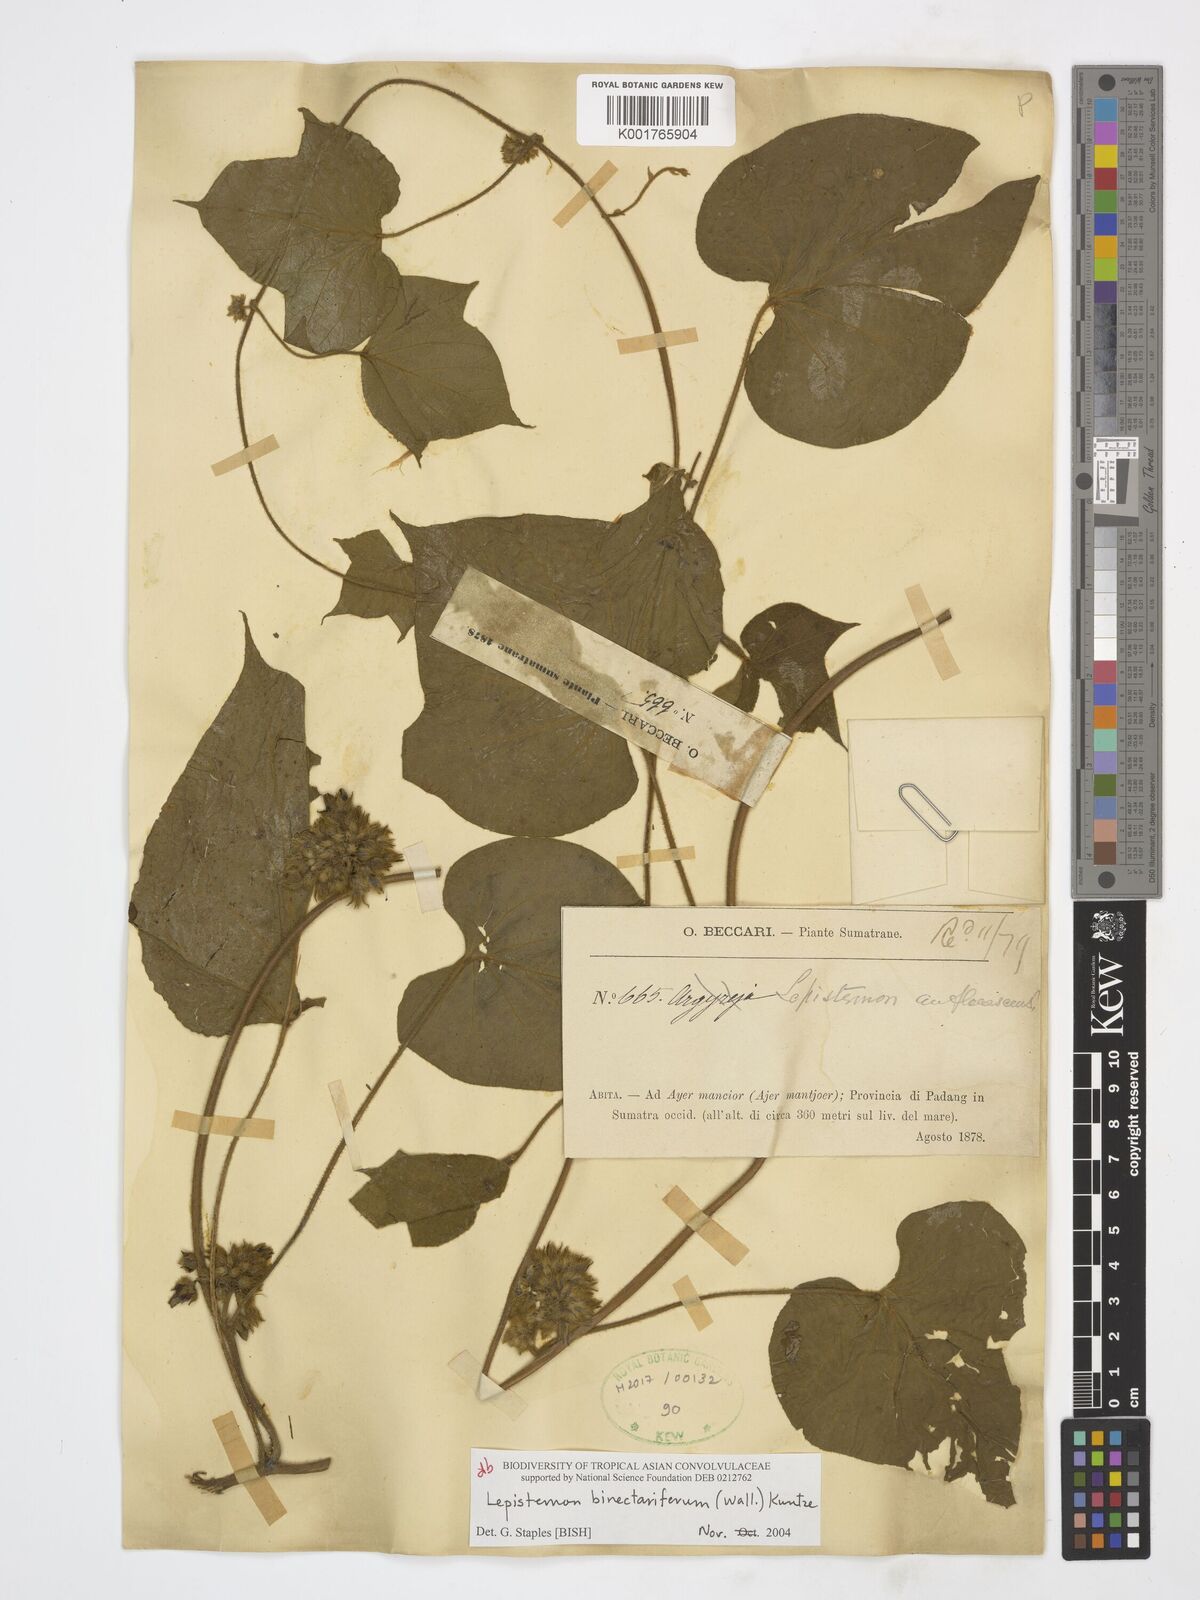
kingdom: Plantae
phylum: Tracheophyta
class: Magnoliopsida
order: Solanales
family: Convolvulaceae
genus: Lepistemon
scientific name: Lepistemon
